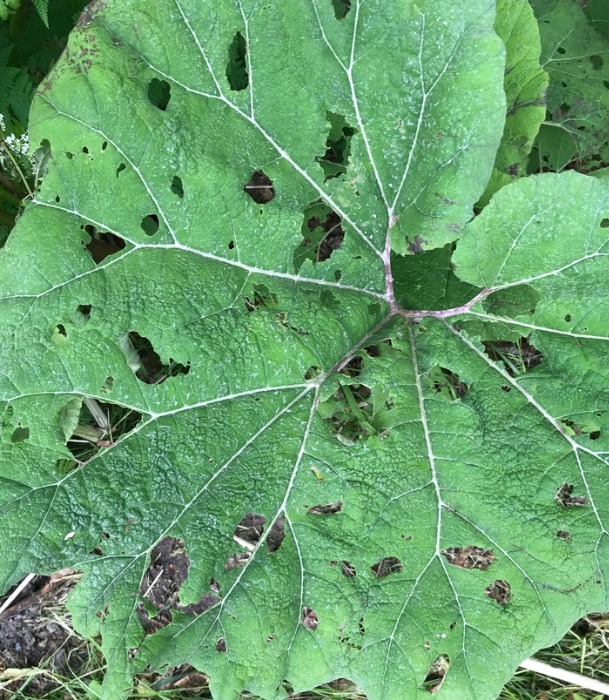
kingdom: Plantae
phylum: Tracheophyta
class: Magnoliopsida
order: Asterales
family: Asteraceae
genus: Petasites
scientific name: Petasites hybridus
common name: Rød hestehov
